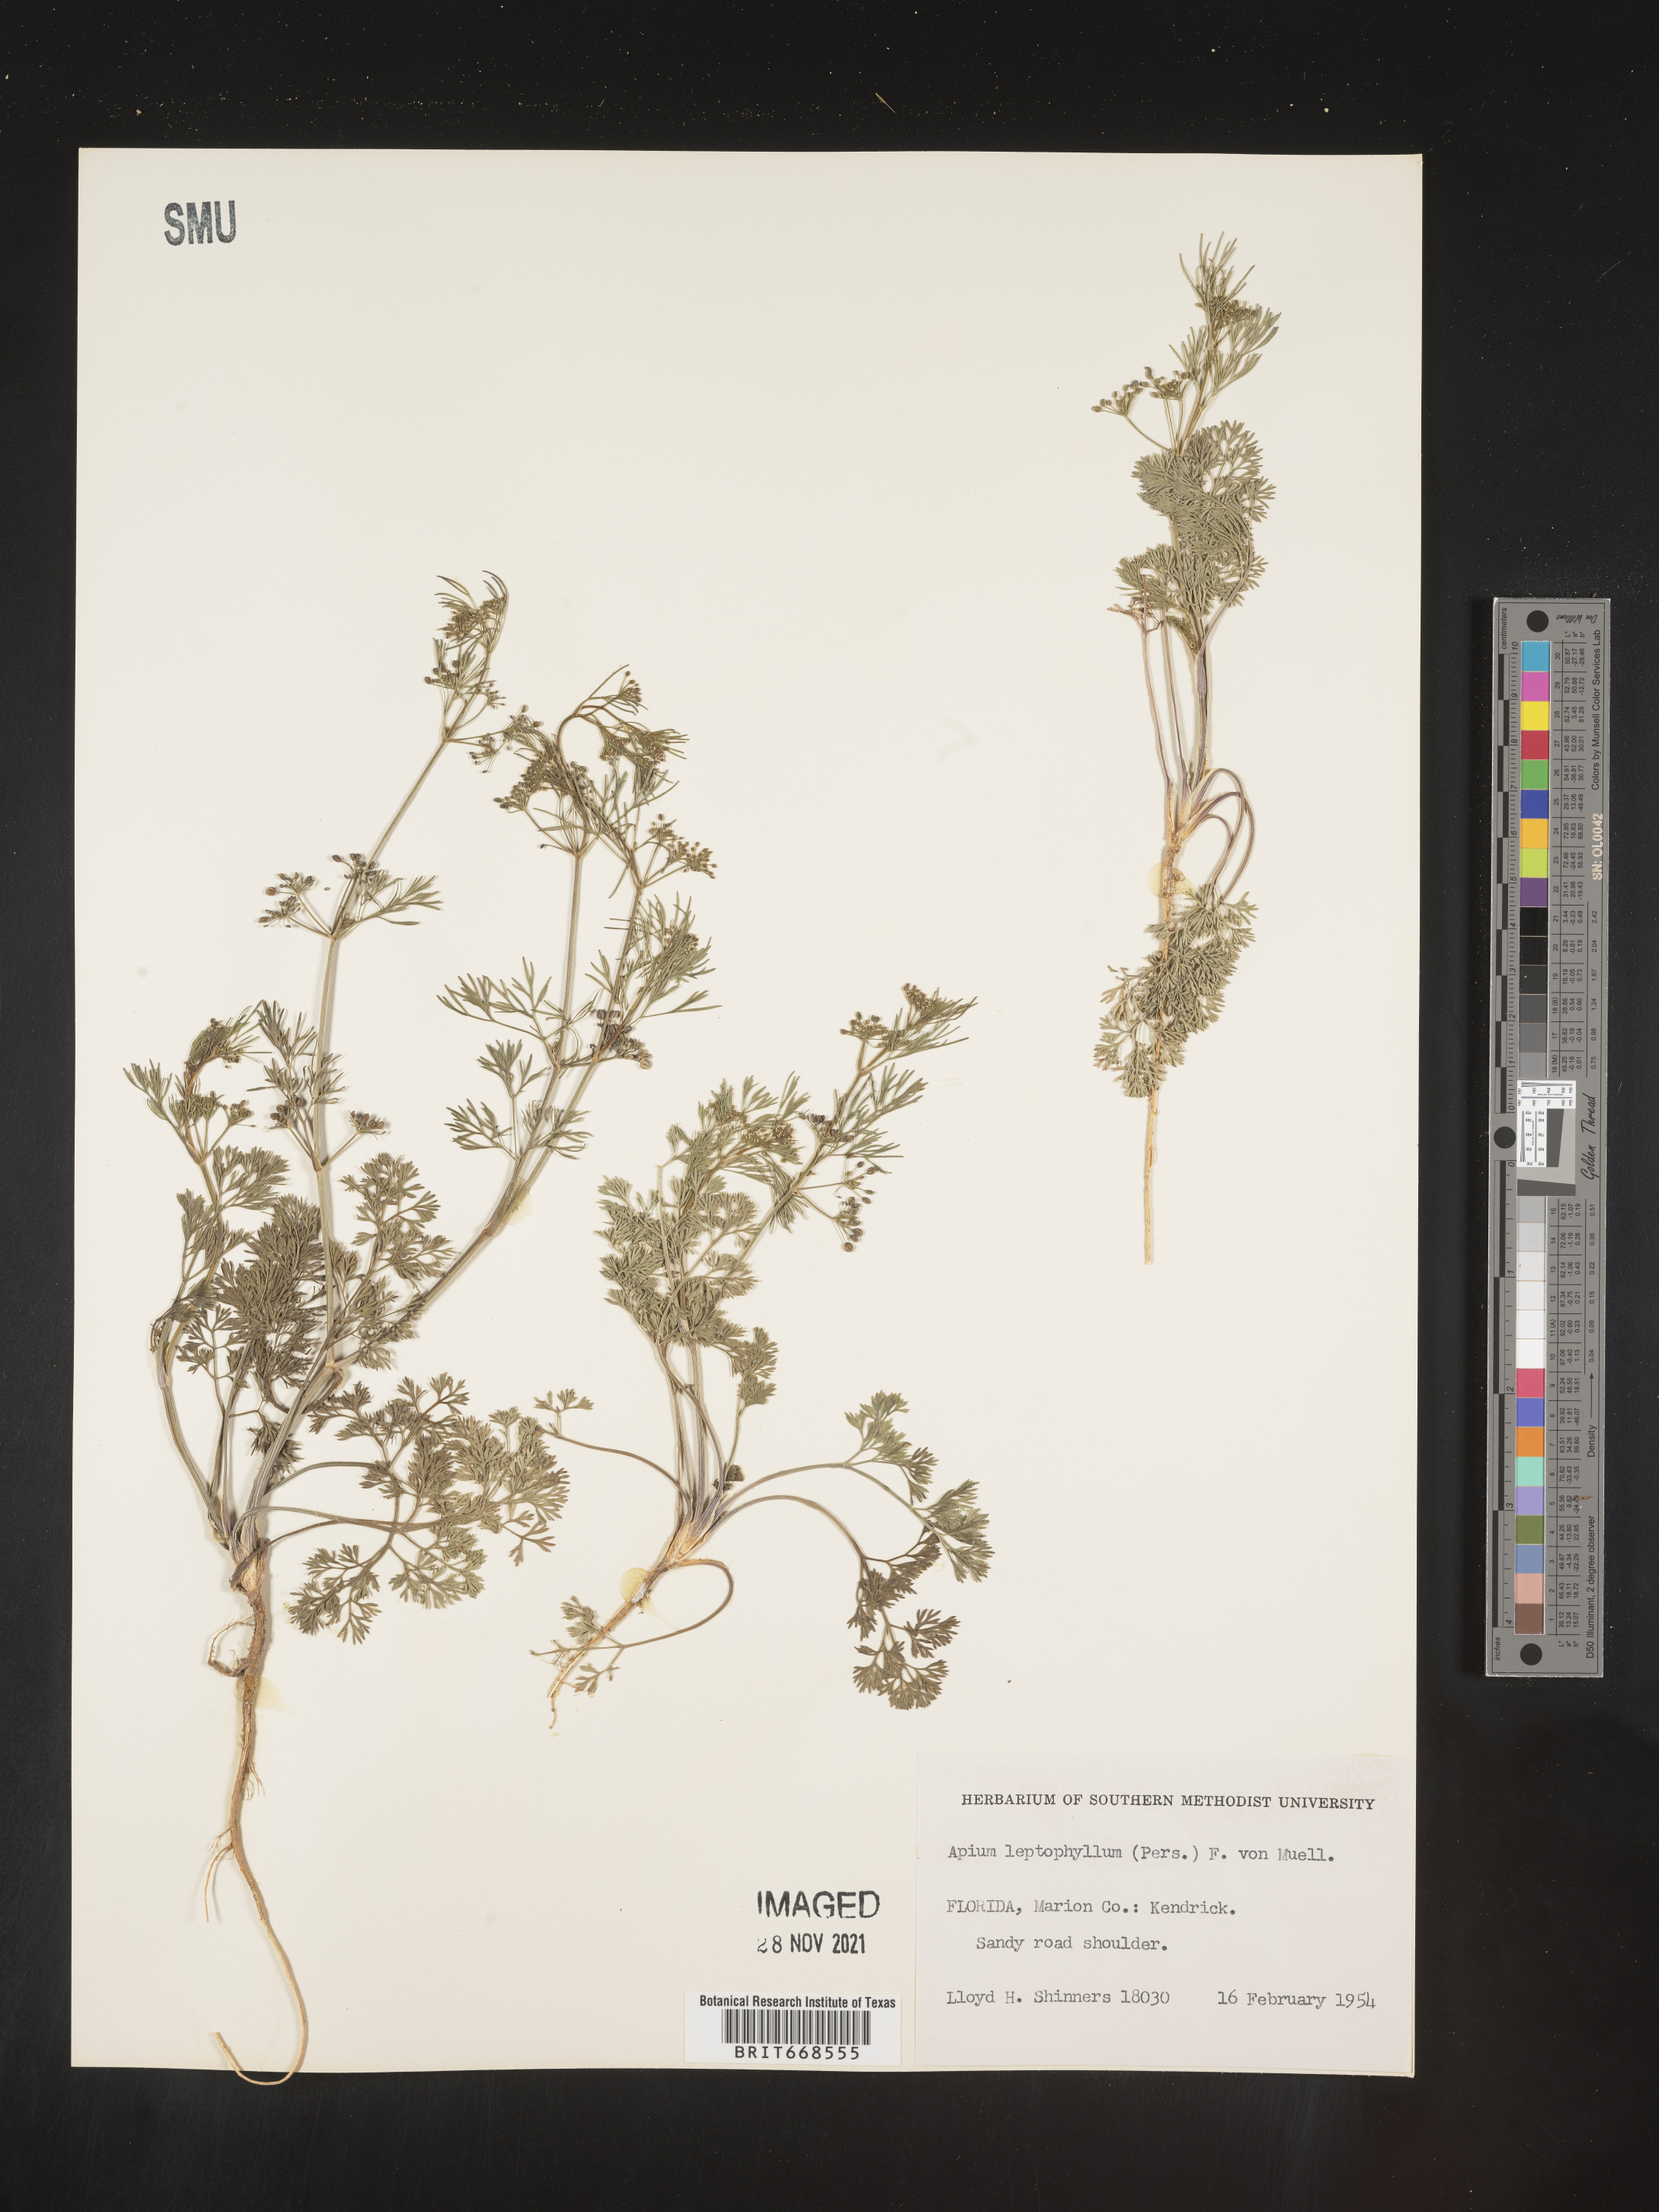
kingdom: Plantae
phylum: Tracheophyta
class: Magnoliopsida
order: Apiales
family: Apiaceae
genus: Cyclospermum
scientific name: Cyclospermum leptophyllum
